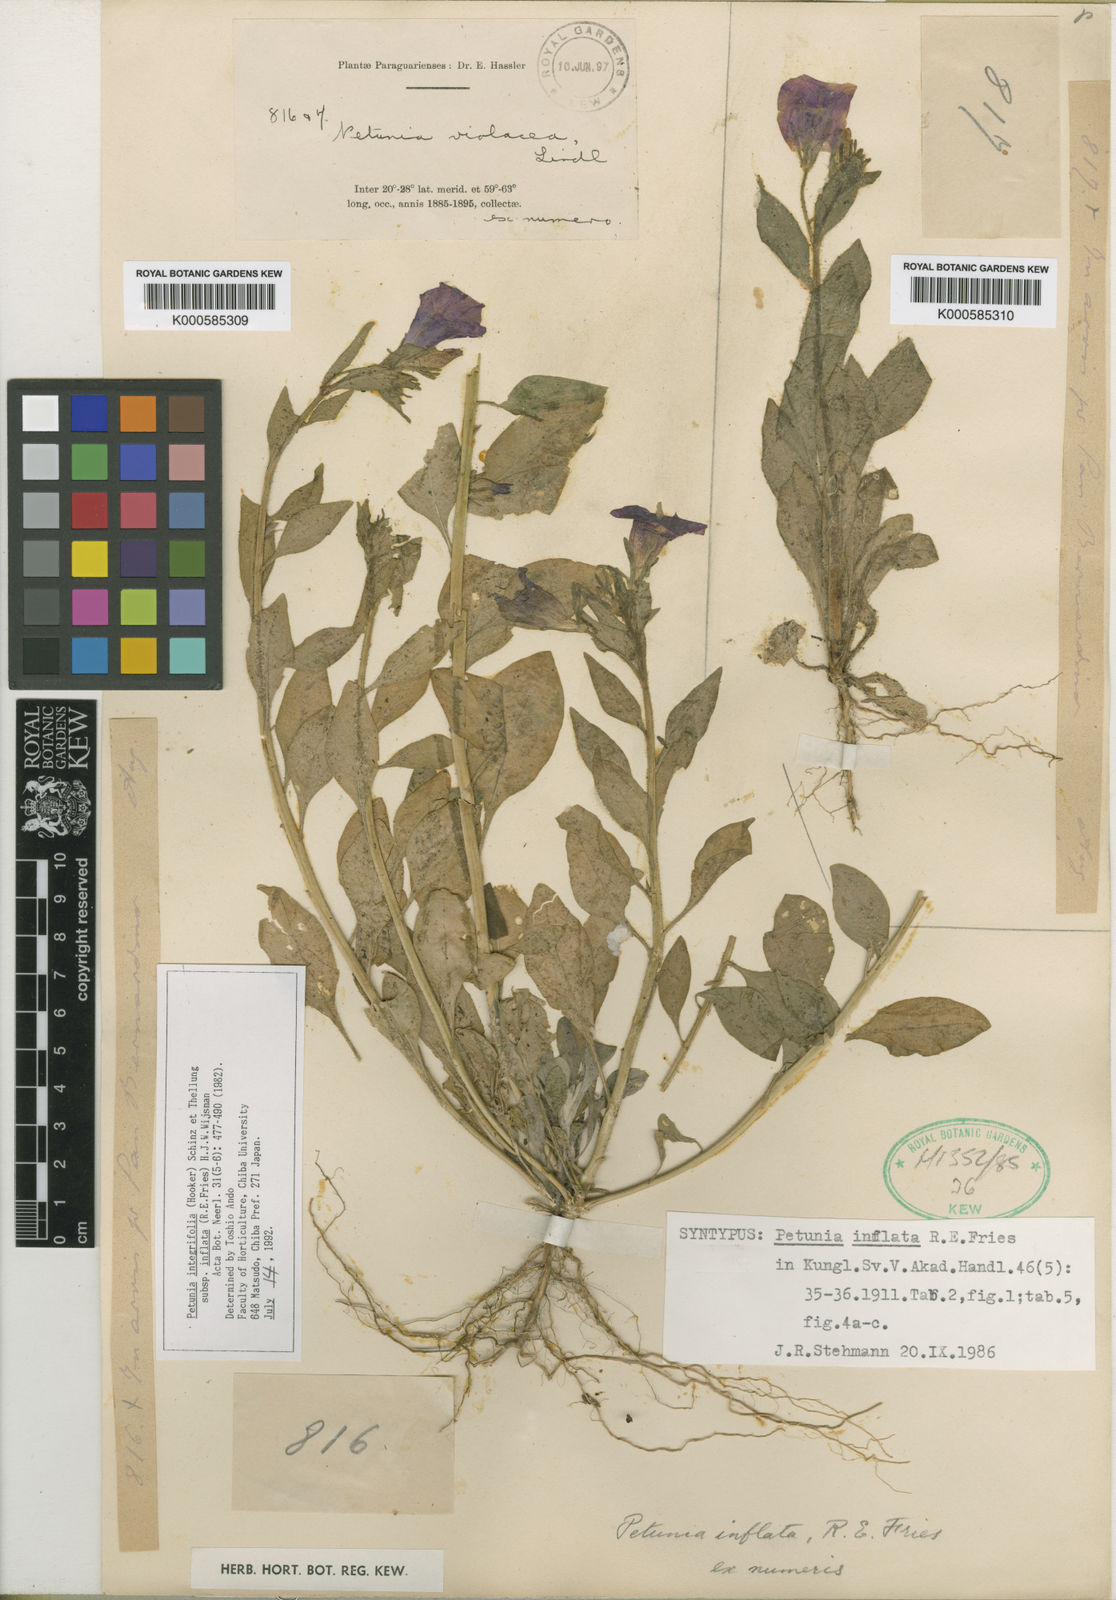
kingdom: Plantae
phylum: Tracheophyta
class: Magnoliopsida
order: Solanales
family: Solanaceae
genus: Petunia
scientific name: Petunia inflata
